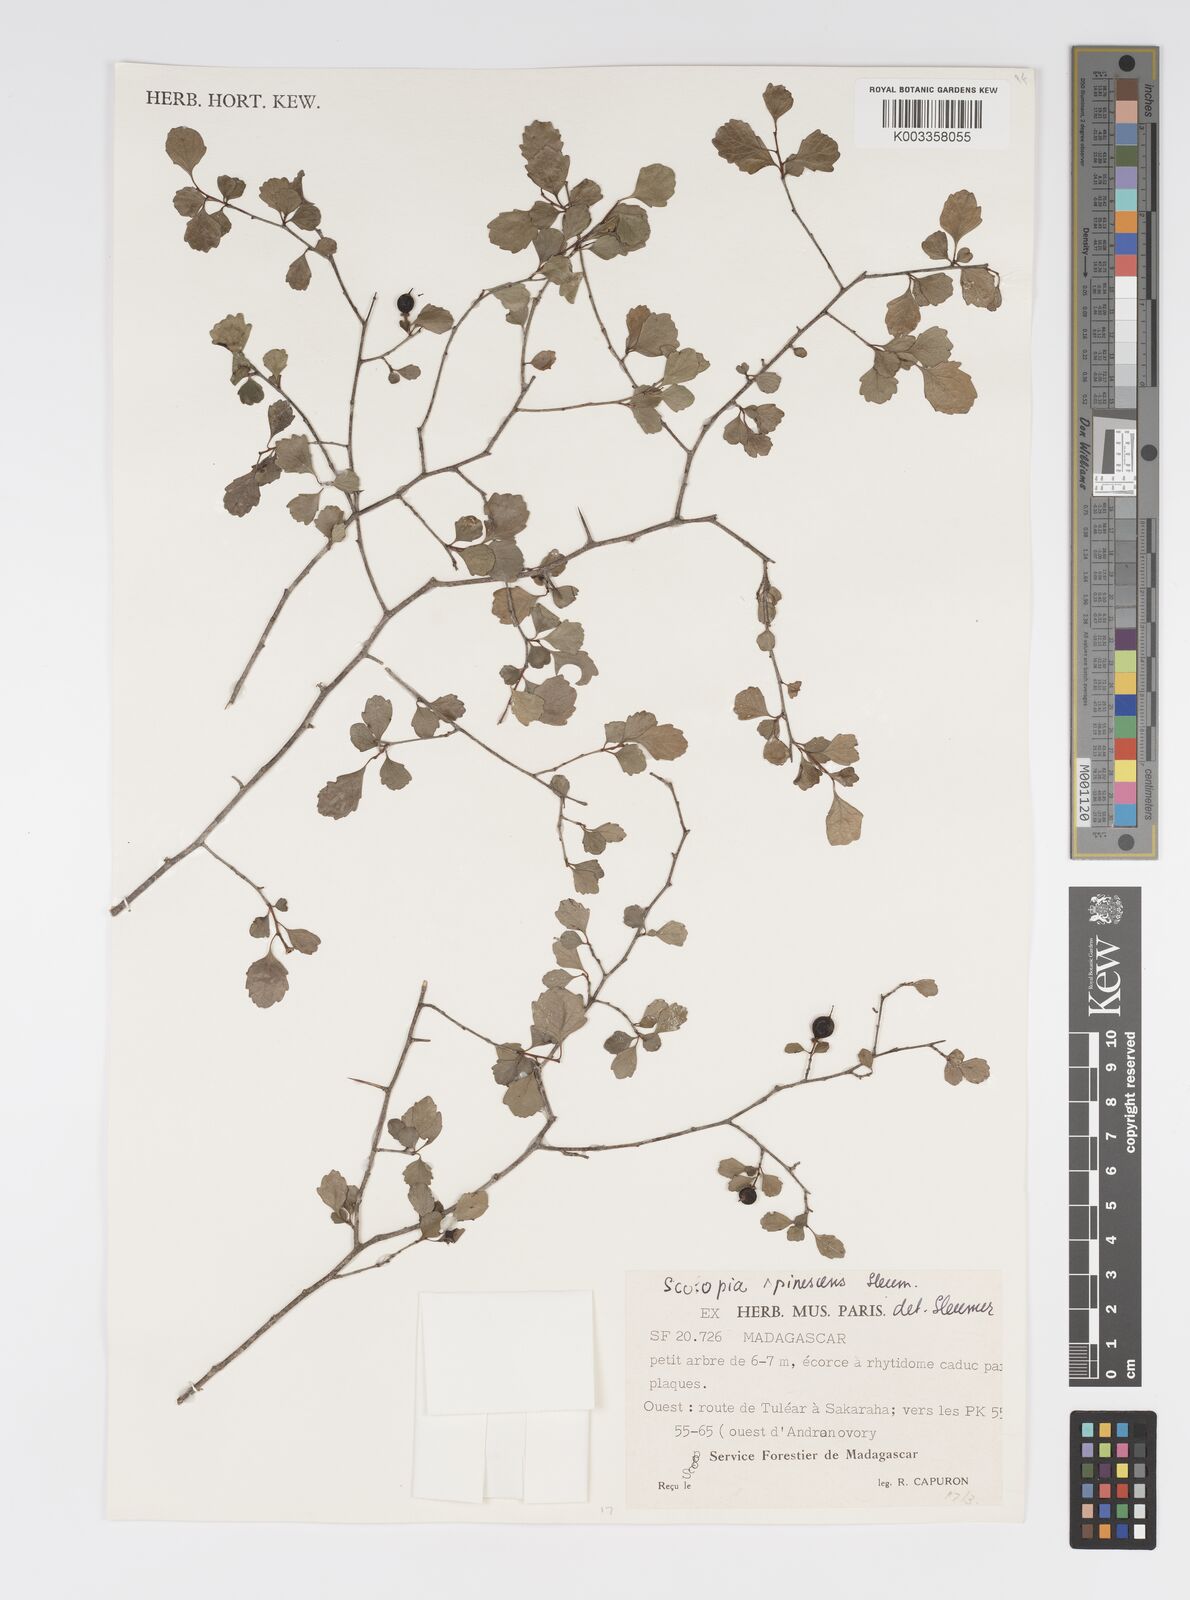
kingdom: Plantae
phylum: Tracheophyta
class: Magnoliopsida
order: Malpighiales
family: Salicaceae
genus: Scolopia
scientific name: Scolopia spinescens
